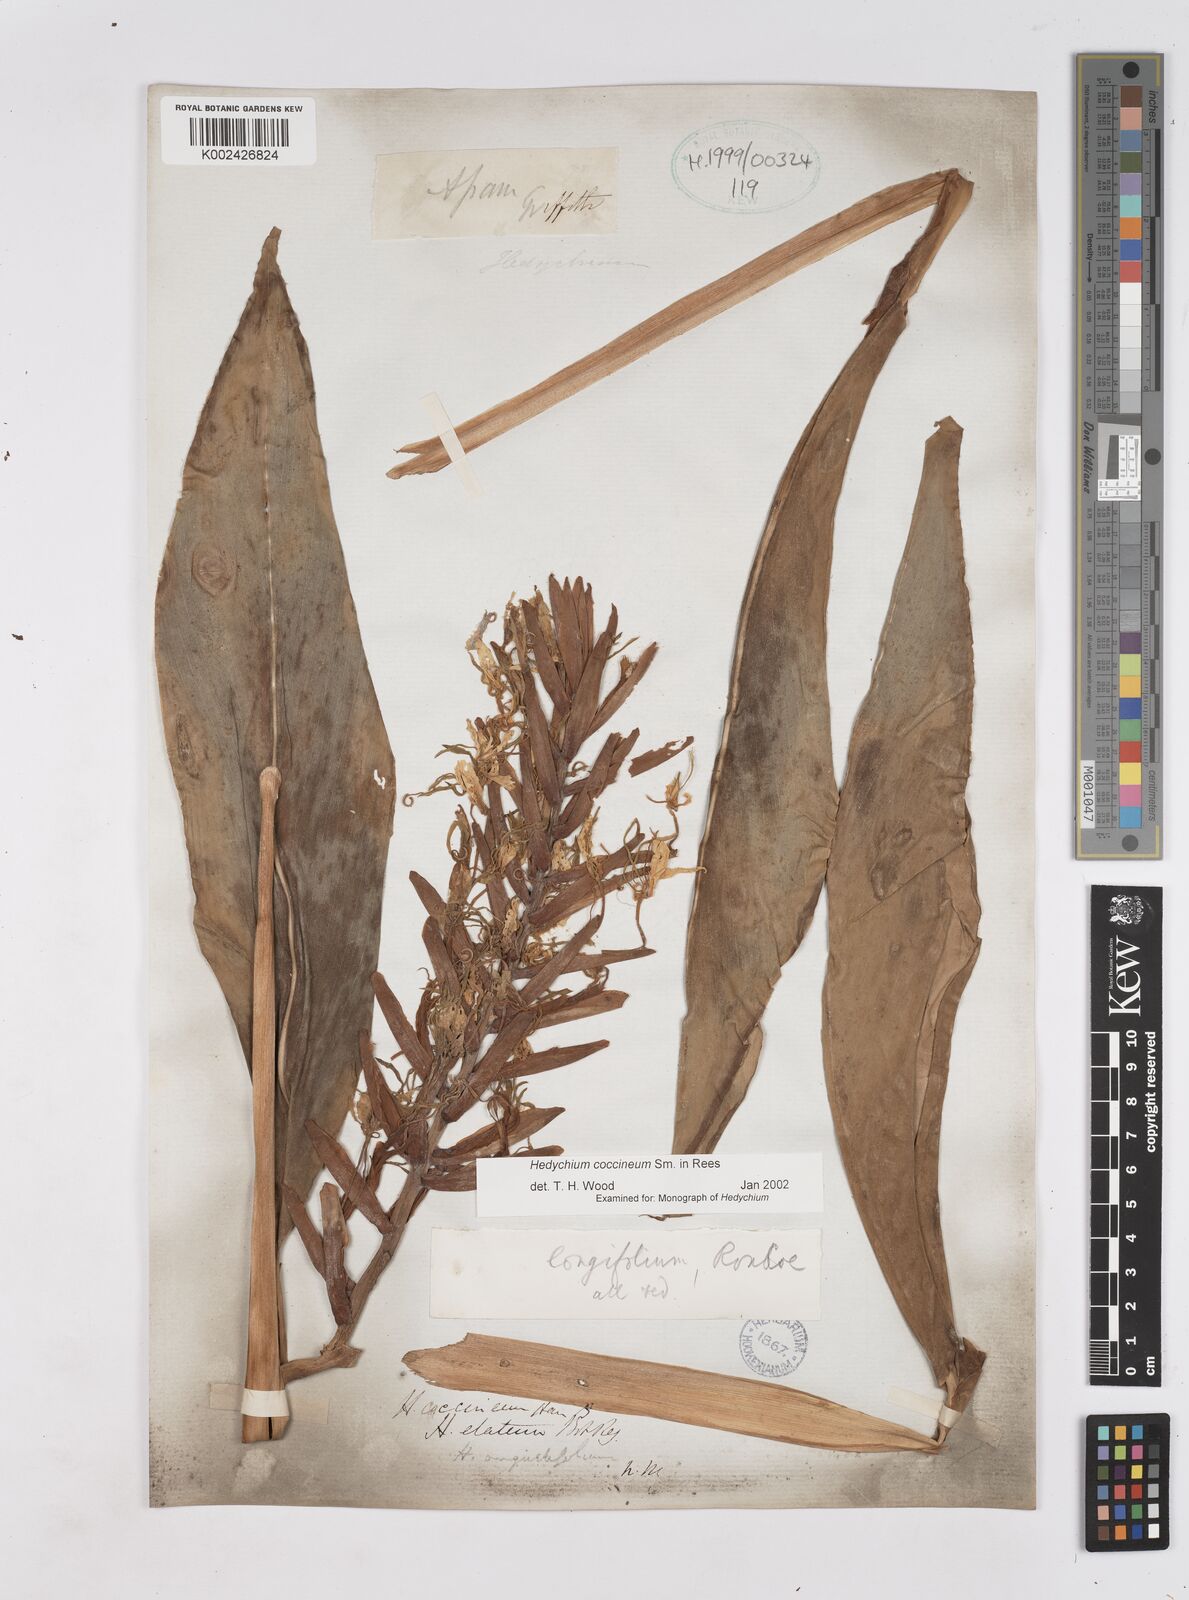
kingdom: Plantae
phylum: Tracheophyta
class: Liliopsida
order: Zingiberales
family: Zingiberaceae
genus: Hedychium
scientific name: Hedychium coccineum
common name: Red ginger-lily
